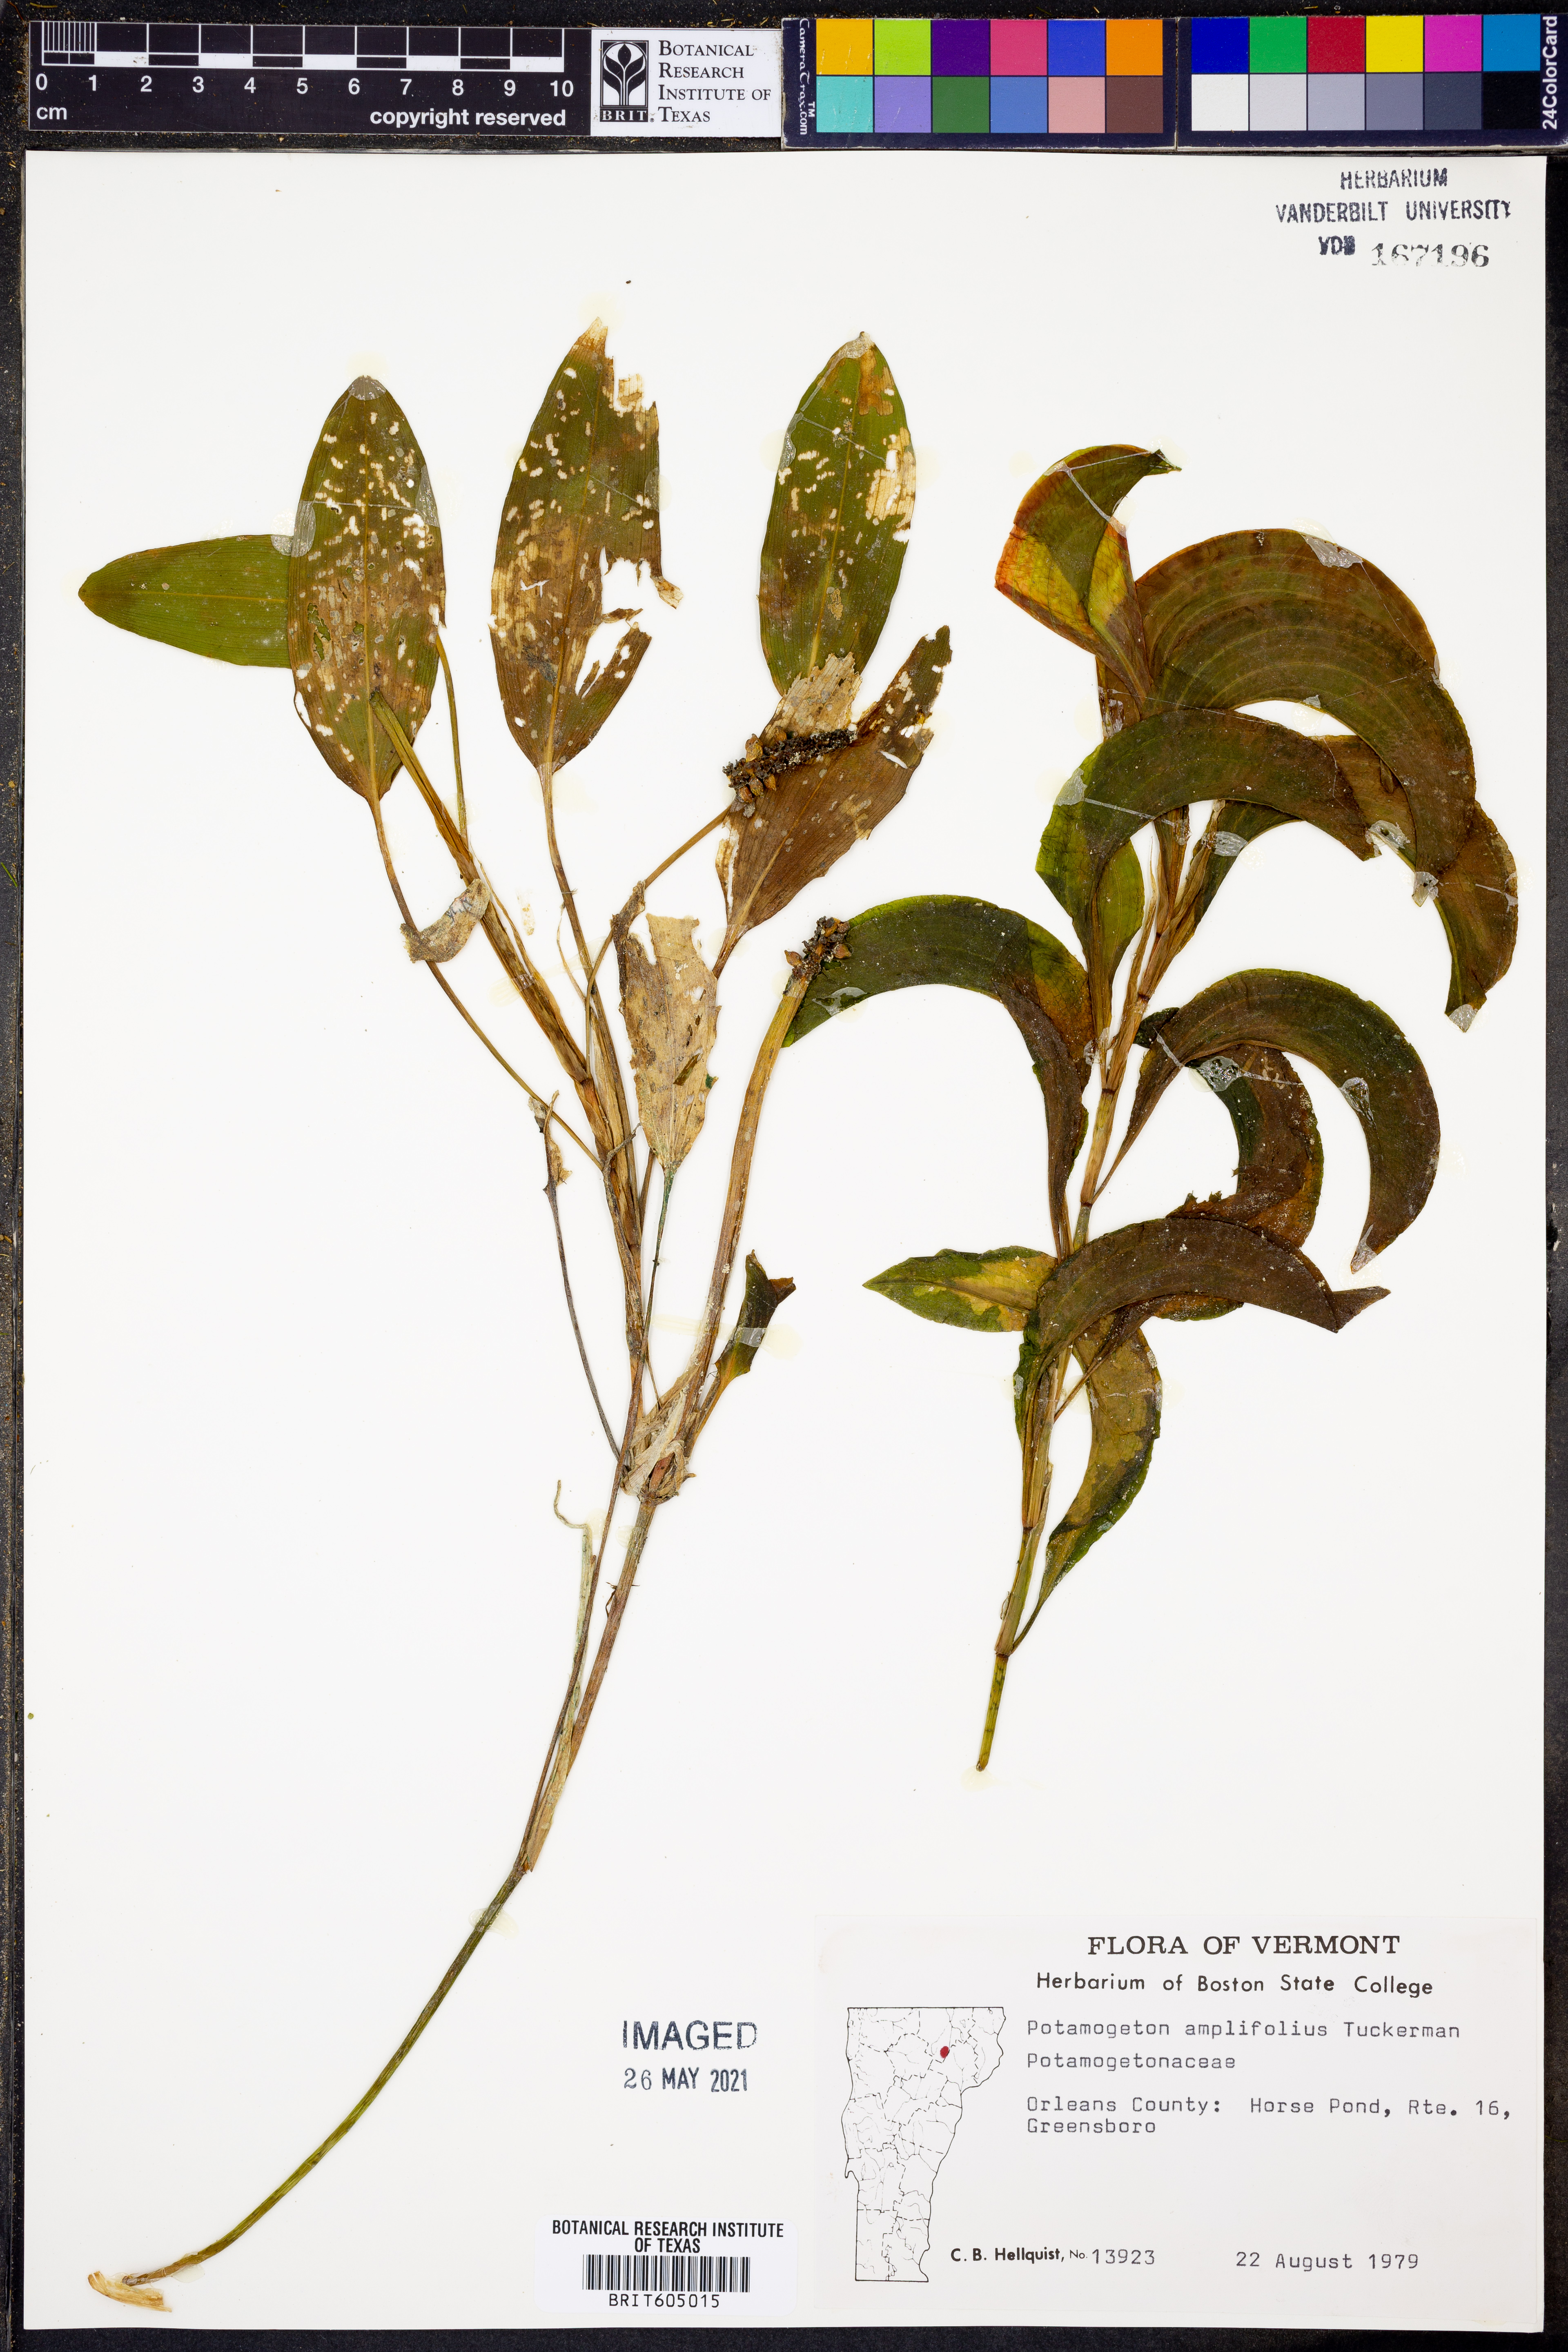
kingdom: Plantae
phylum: Tracheophyta
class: Liliopsida
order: Alismatales
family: Potamogetonaceae
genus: Potamogeton
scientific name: Potamogeton amplifolius
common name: Broad-leaved pondweed
